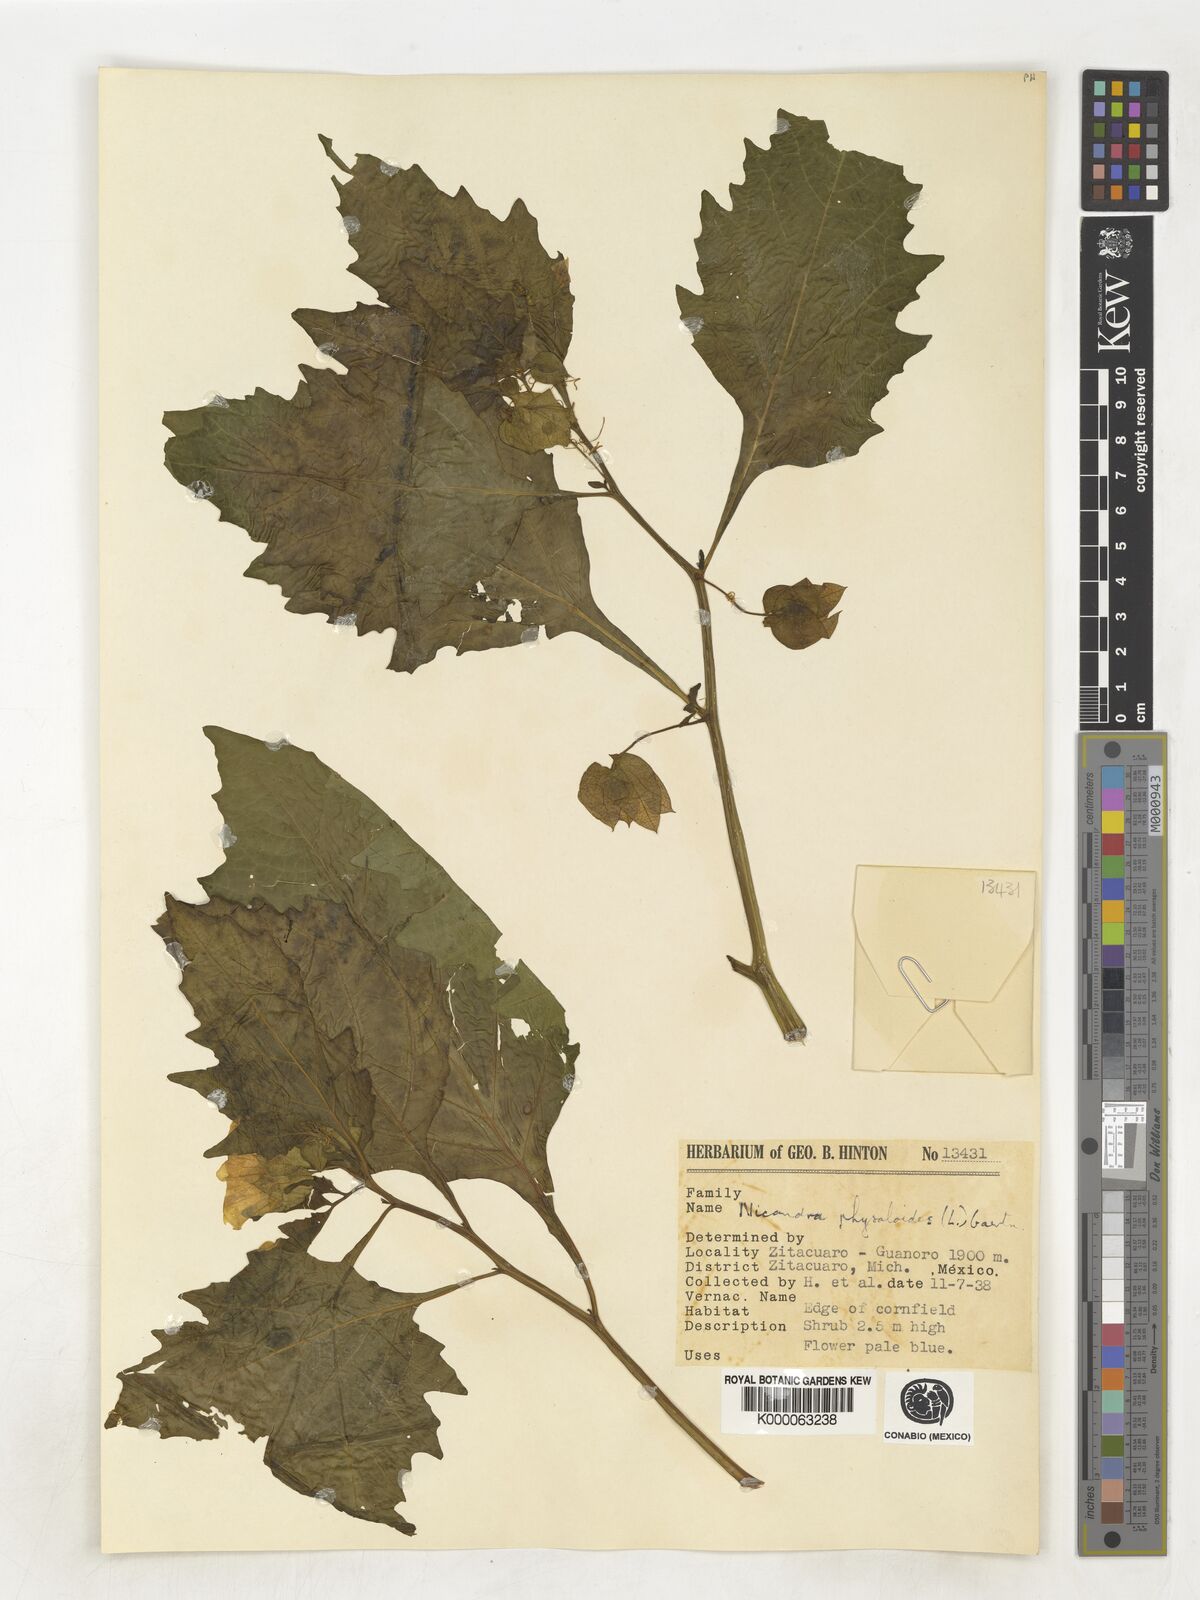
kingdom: Plantae
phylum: Tracheophyta
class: Magnoliopsida
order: Solanales
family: Solanaceae
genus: Nicandra
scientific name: Nicandra
